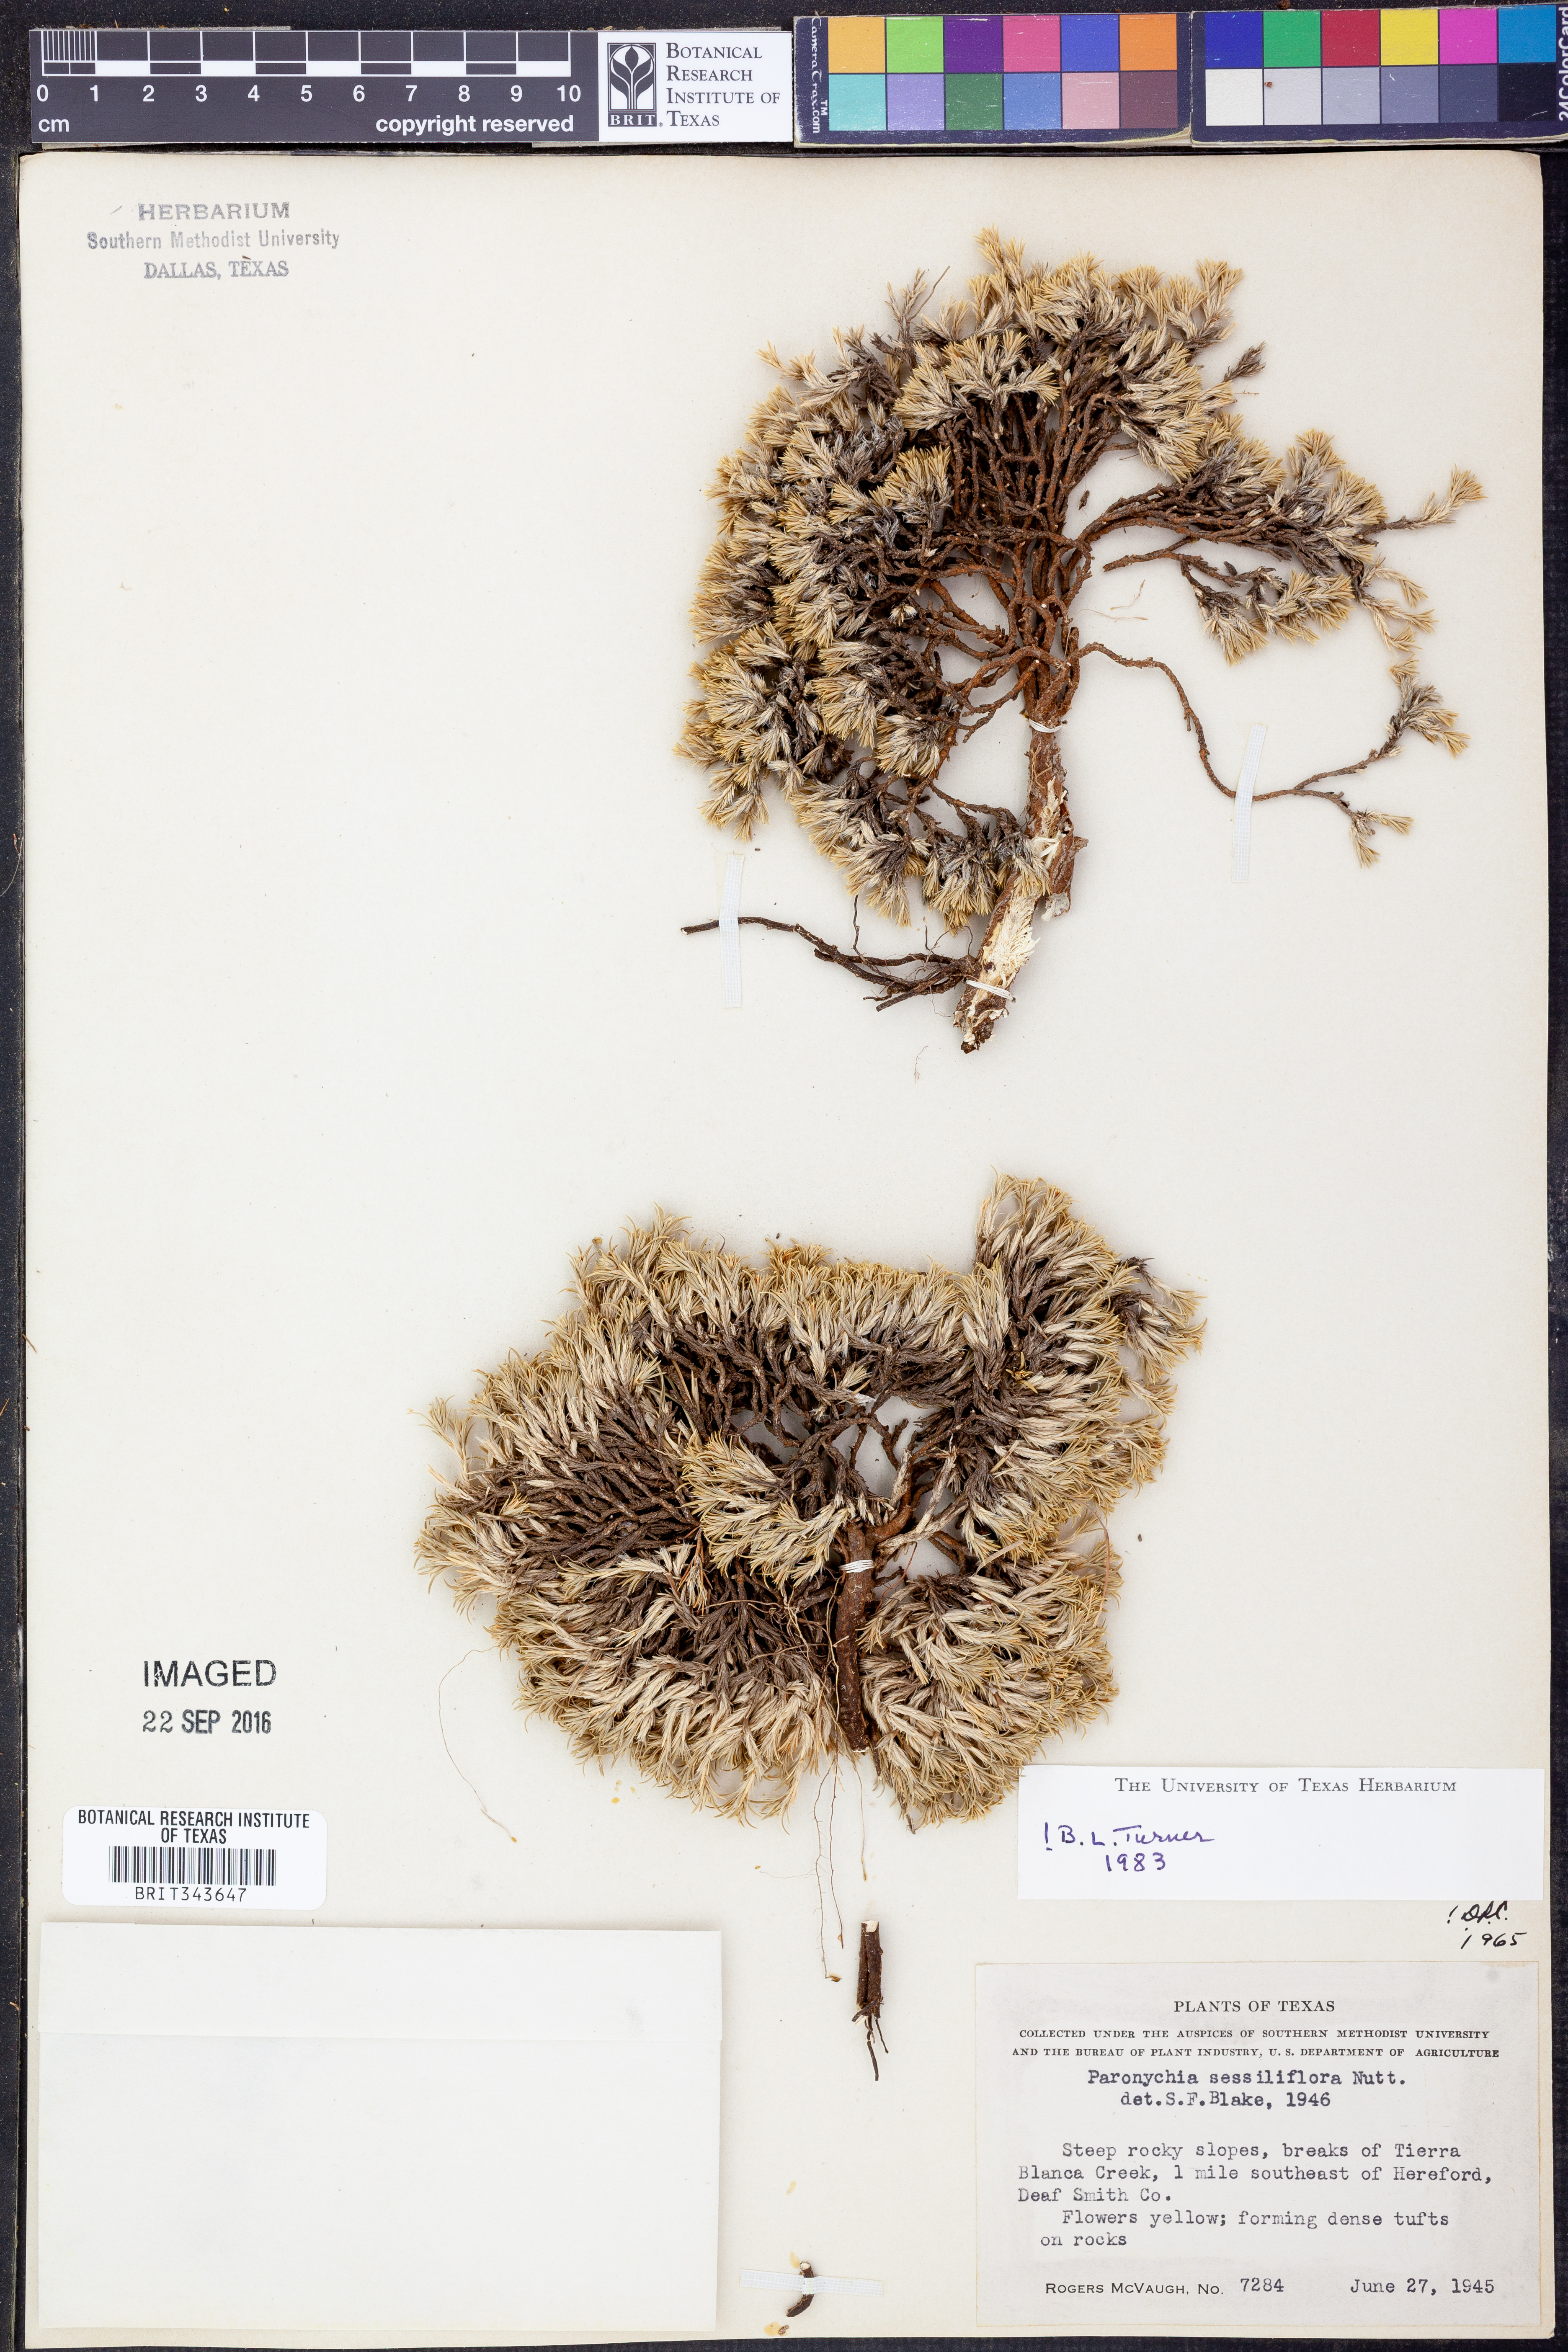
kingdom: Plantae
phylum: Tracheophyta
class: Magnoliopsida
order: Caryophyllales
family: Caryophyllaceae
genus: Paronychia
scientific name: Paronychia sessiliflora
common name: Creeping nailwort
